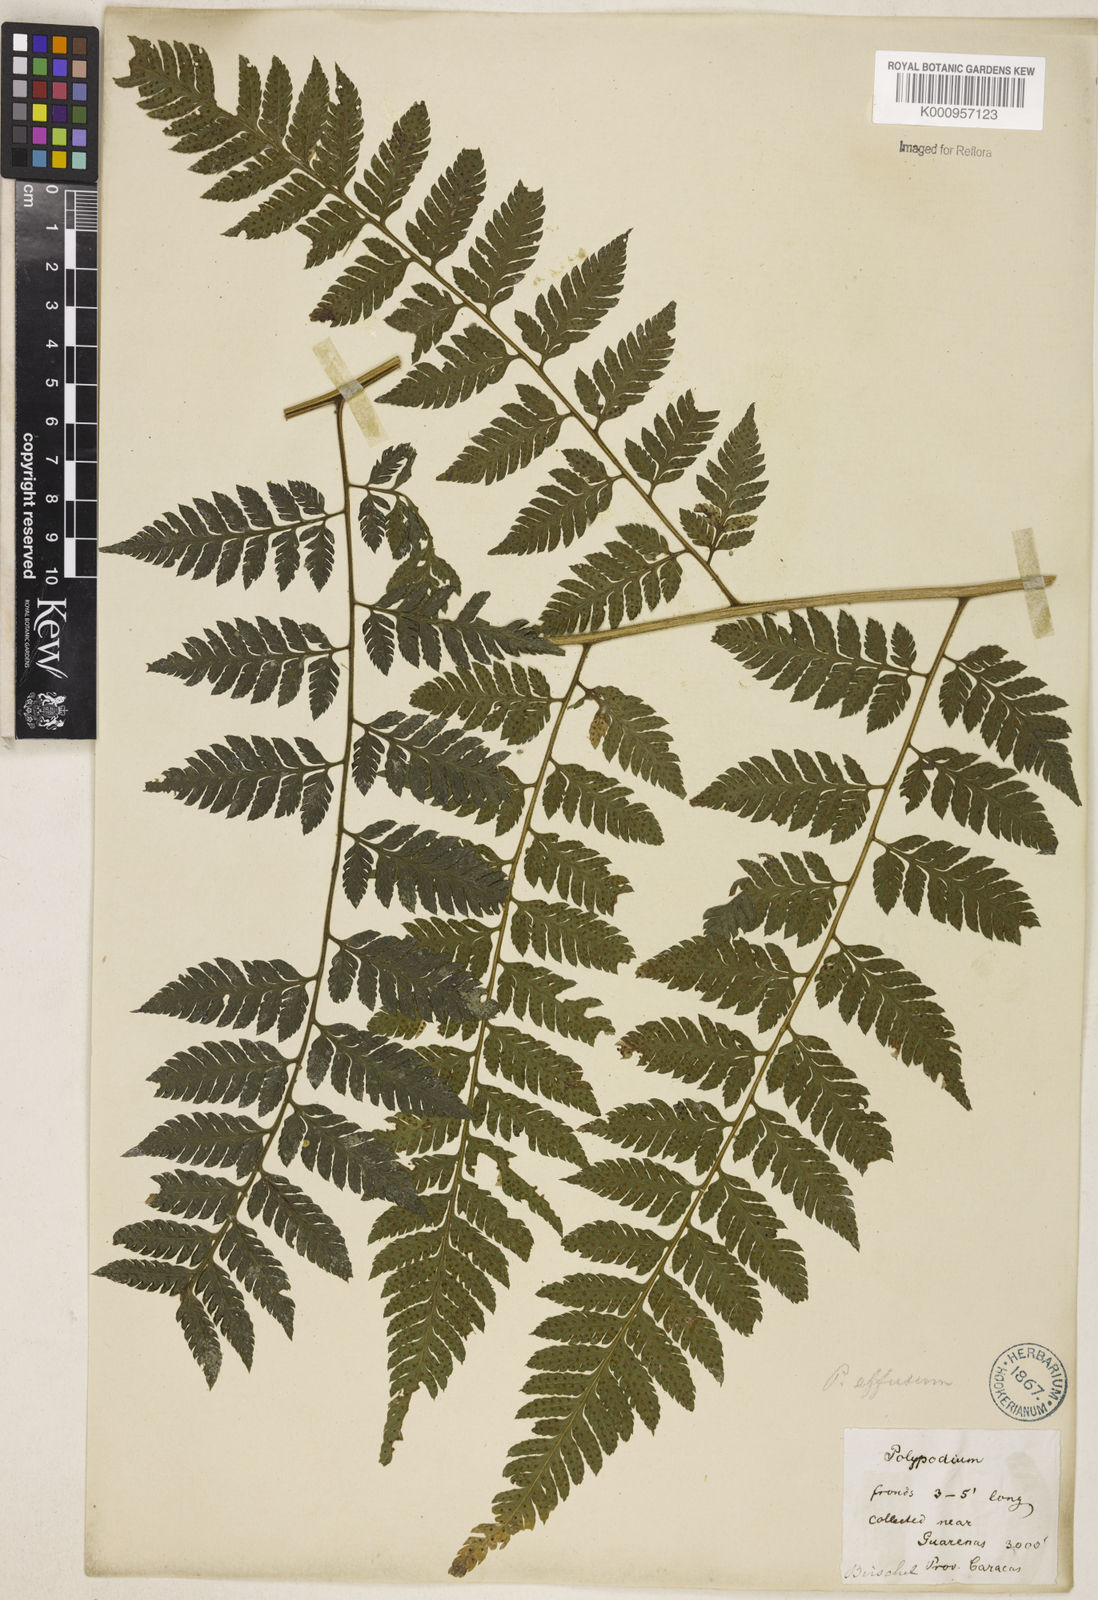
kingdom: Plantae
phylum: Tracheophyta
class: Polypodiopsida
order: Polypodiales
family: Dryopteridaceae
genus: Parapolystichum
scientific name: Parapolystichum effusum
